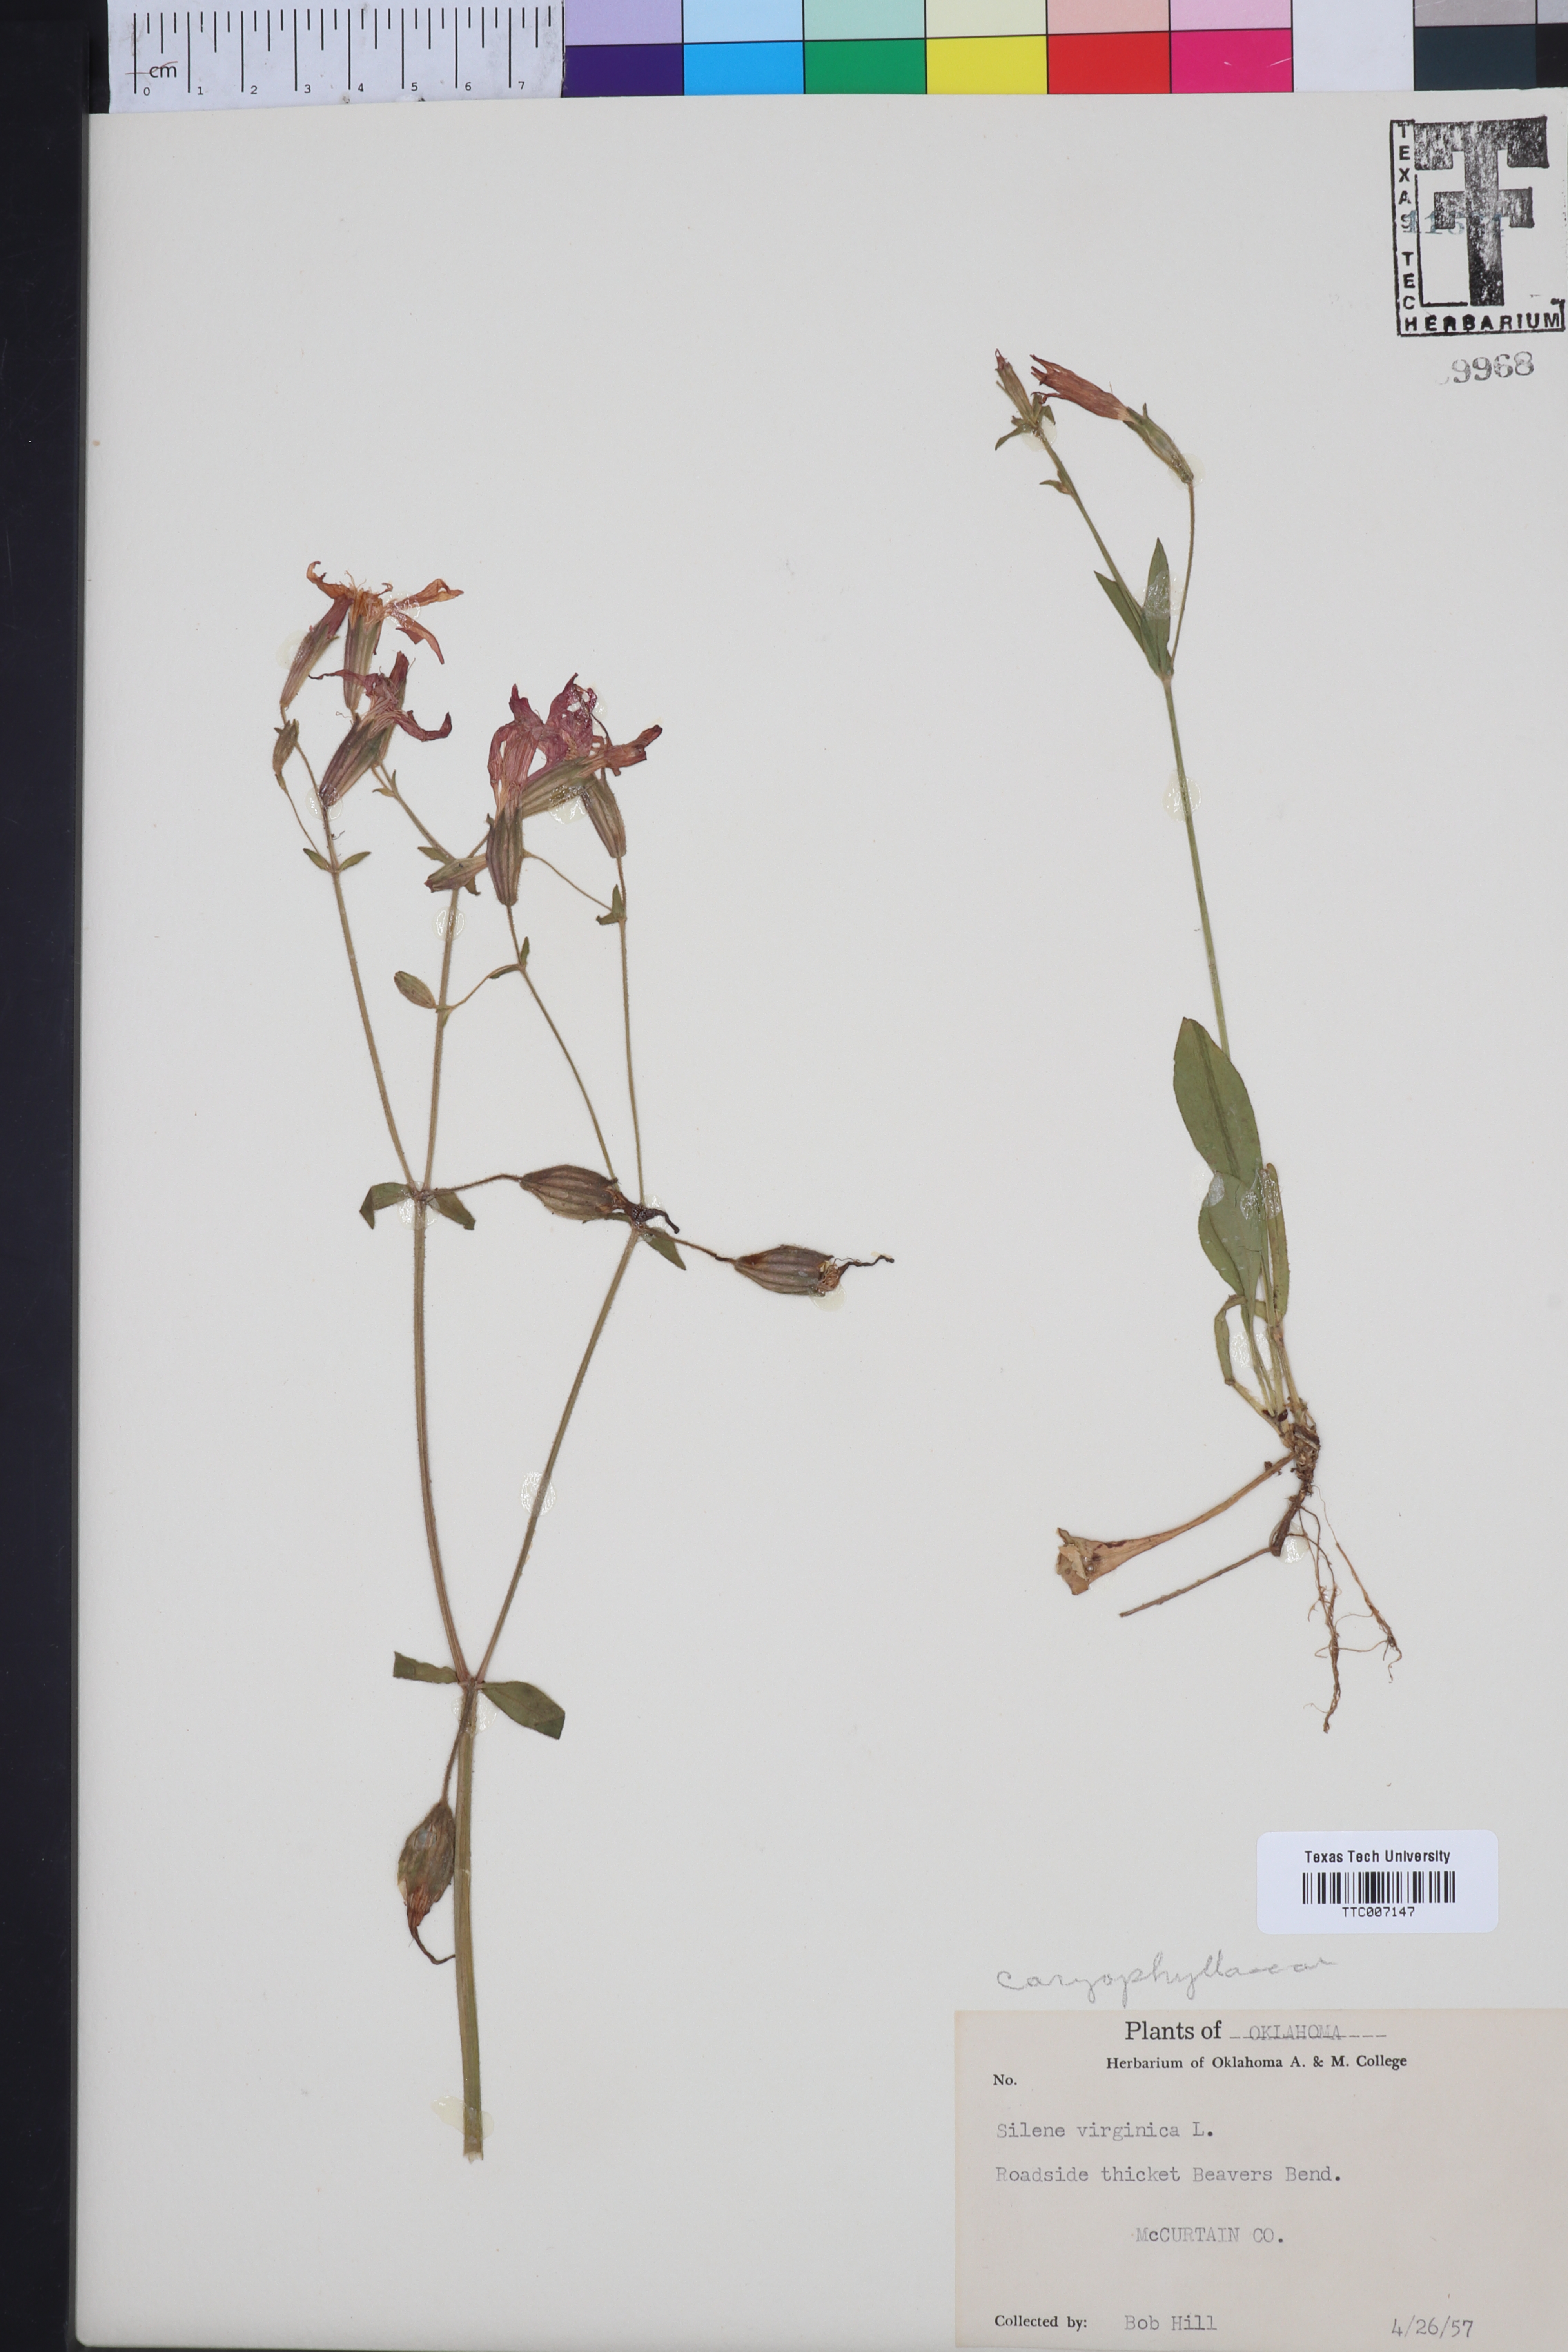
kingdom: Plantae
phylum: Tracheophyta
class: Magnoliopsida
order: Caryophyllales
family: Caryophyllaceae
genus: Silene
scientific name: Silene virginica
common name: Fire-pink
